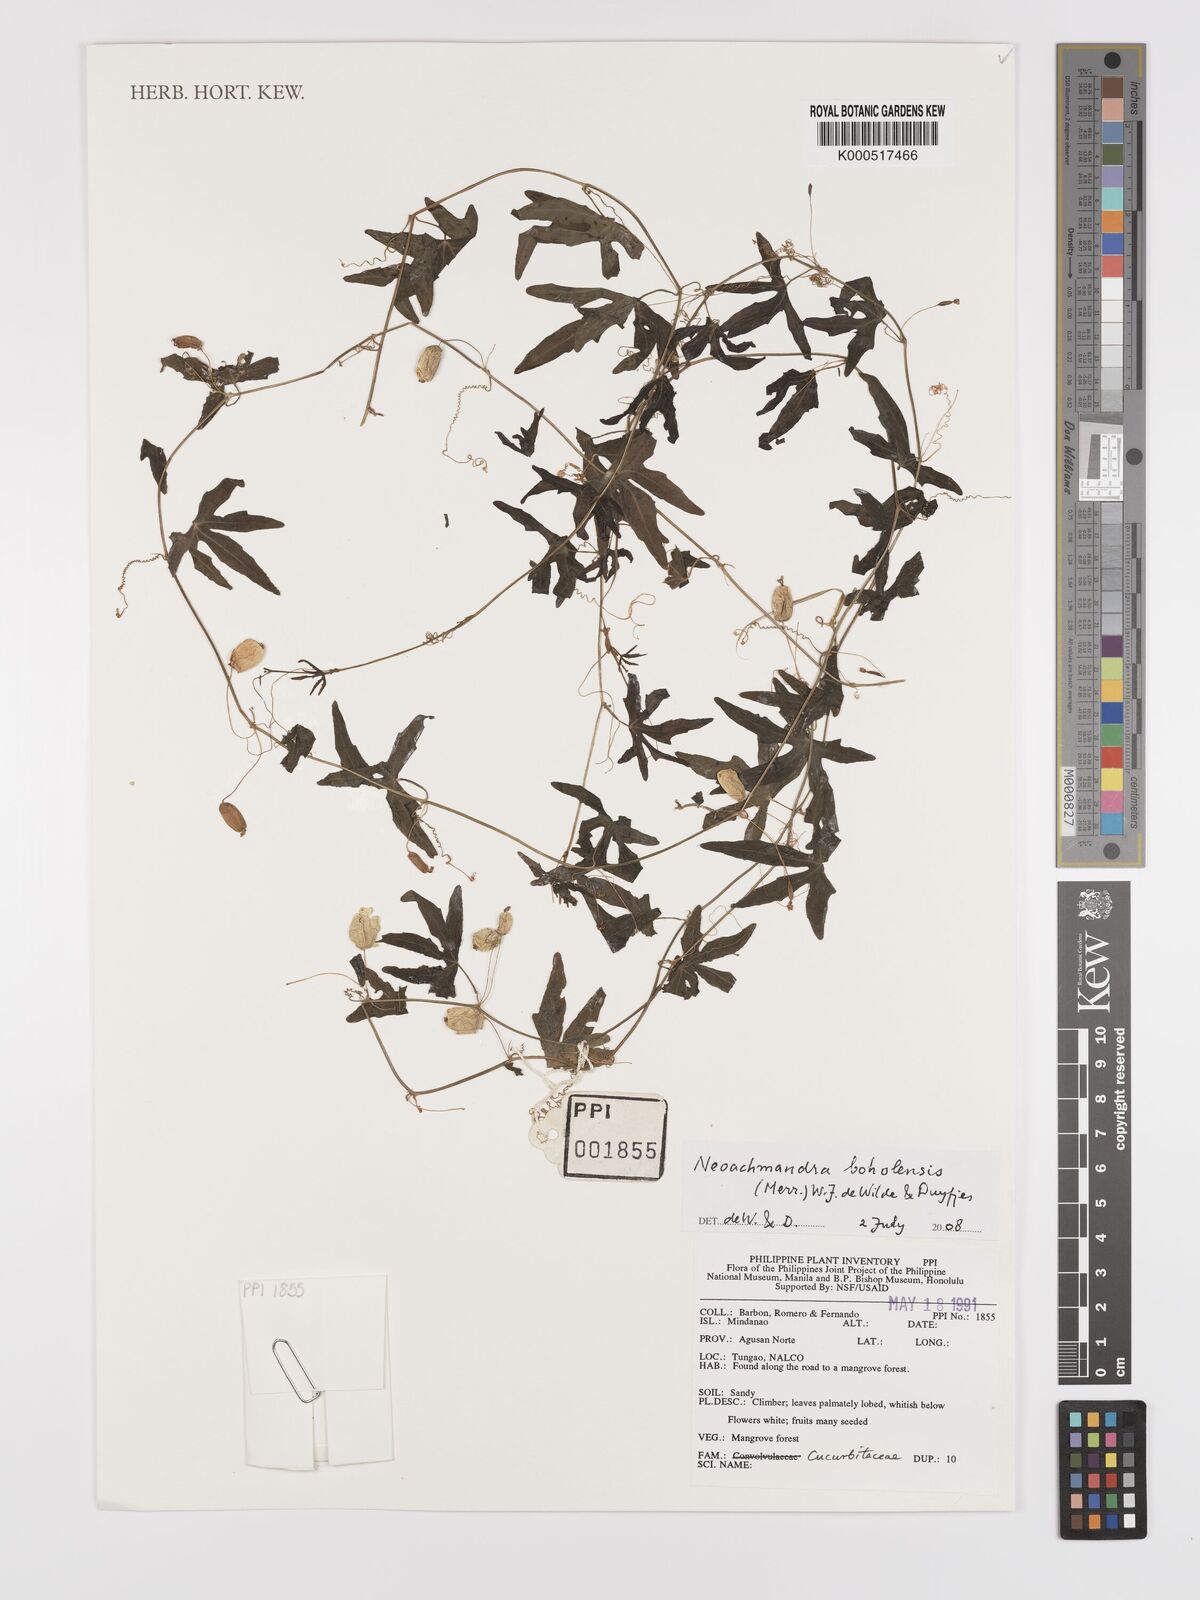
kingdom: Plantae
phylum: Tracheophyta
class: Magnoliopsida
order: Cucurbitales
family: Cucurbitaceae
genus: Zehneria
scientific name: Zehneria boholensis
